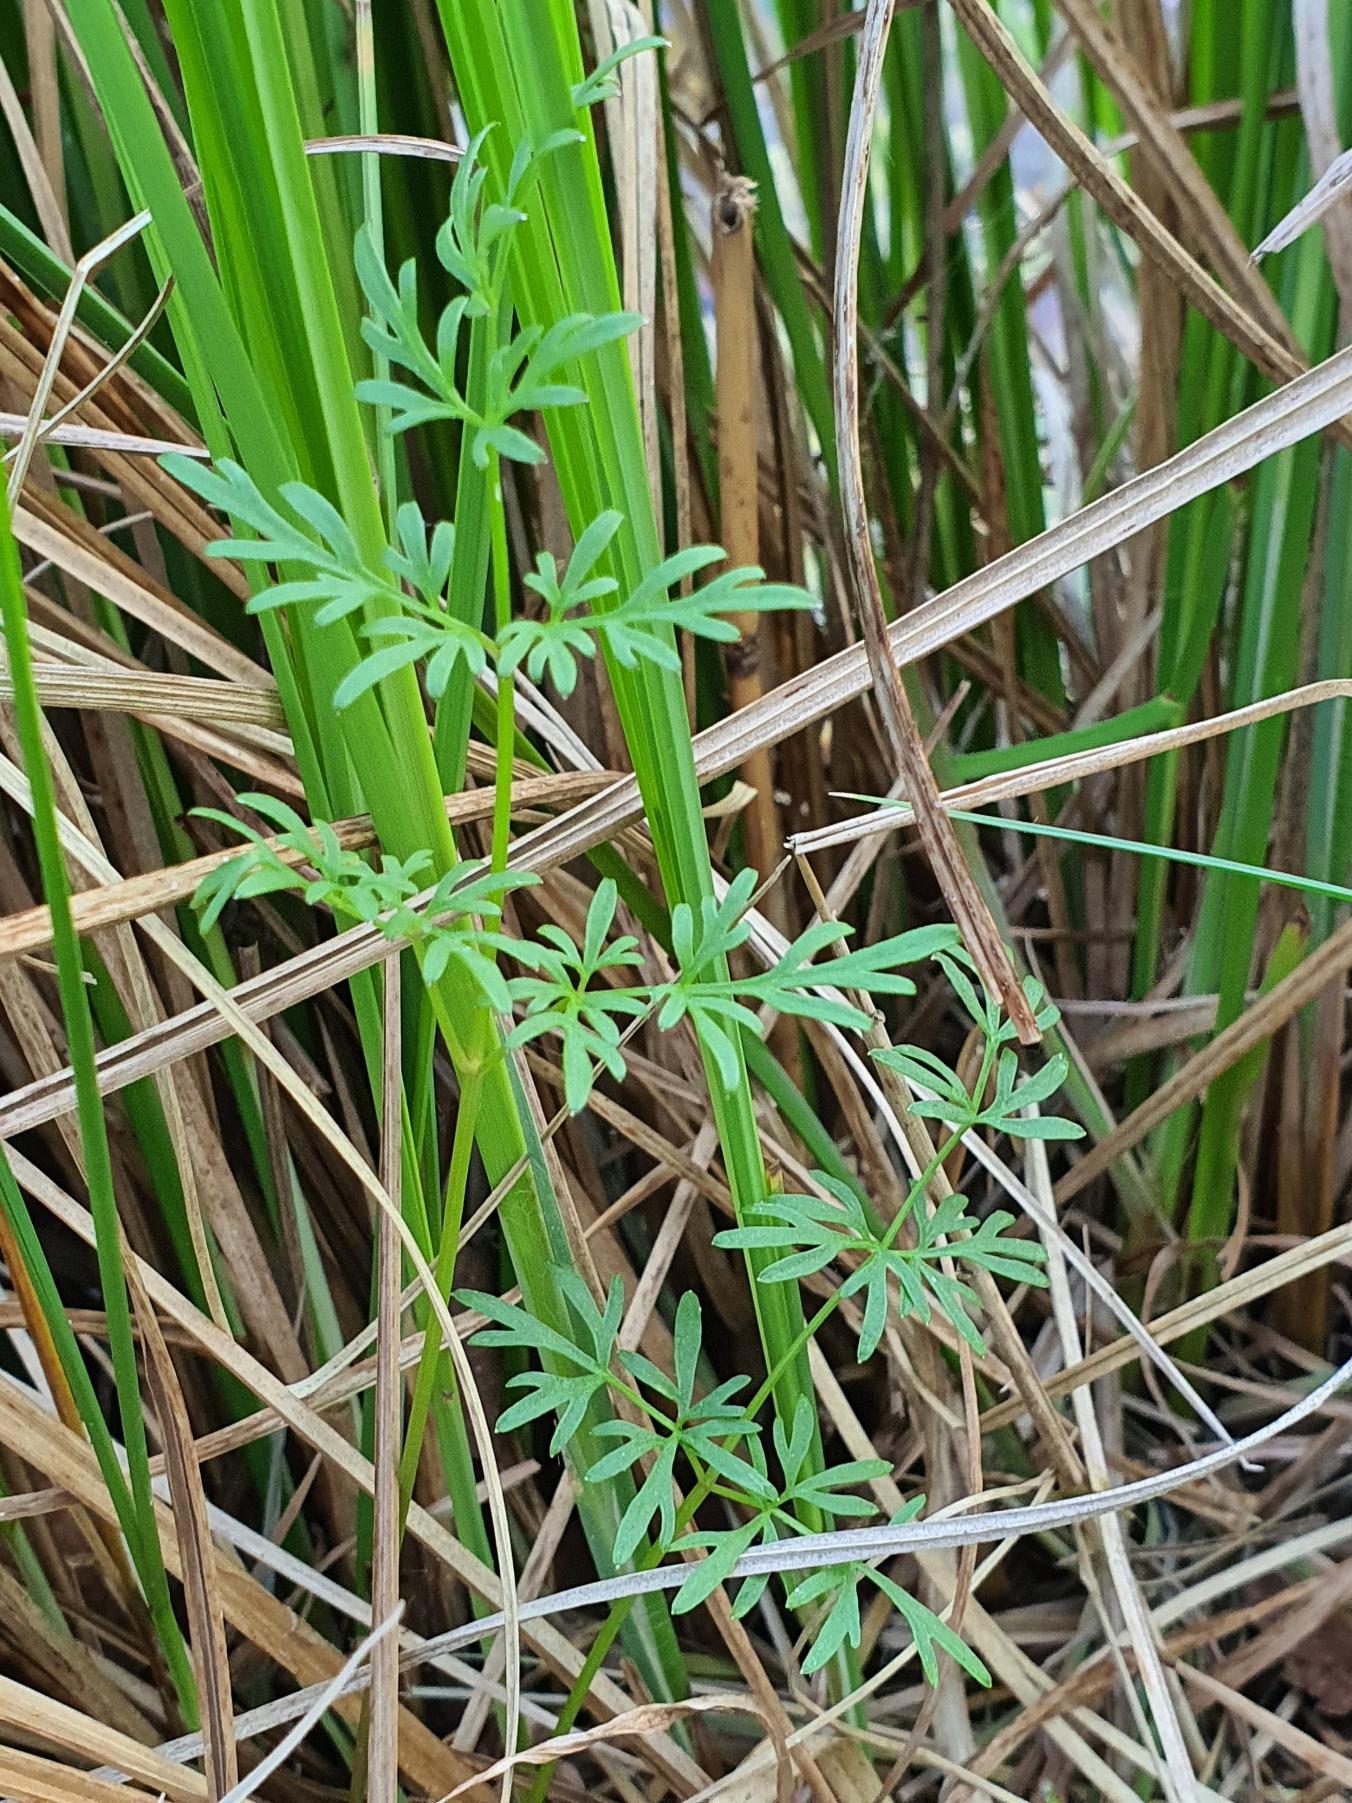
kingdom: Plantae
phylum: Tracheophyta
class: Magnoliopsida
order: Apiales
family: Apiaceae
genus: Thysselinum
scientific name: Thysselinum palustre
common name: Kær-svovlrod
